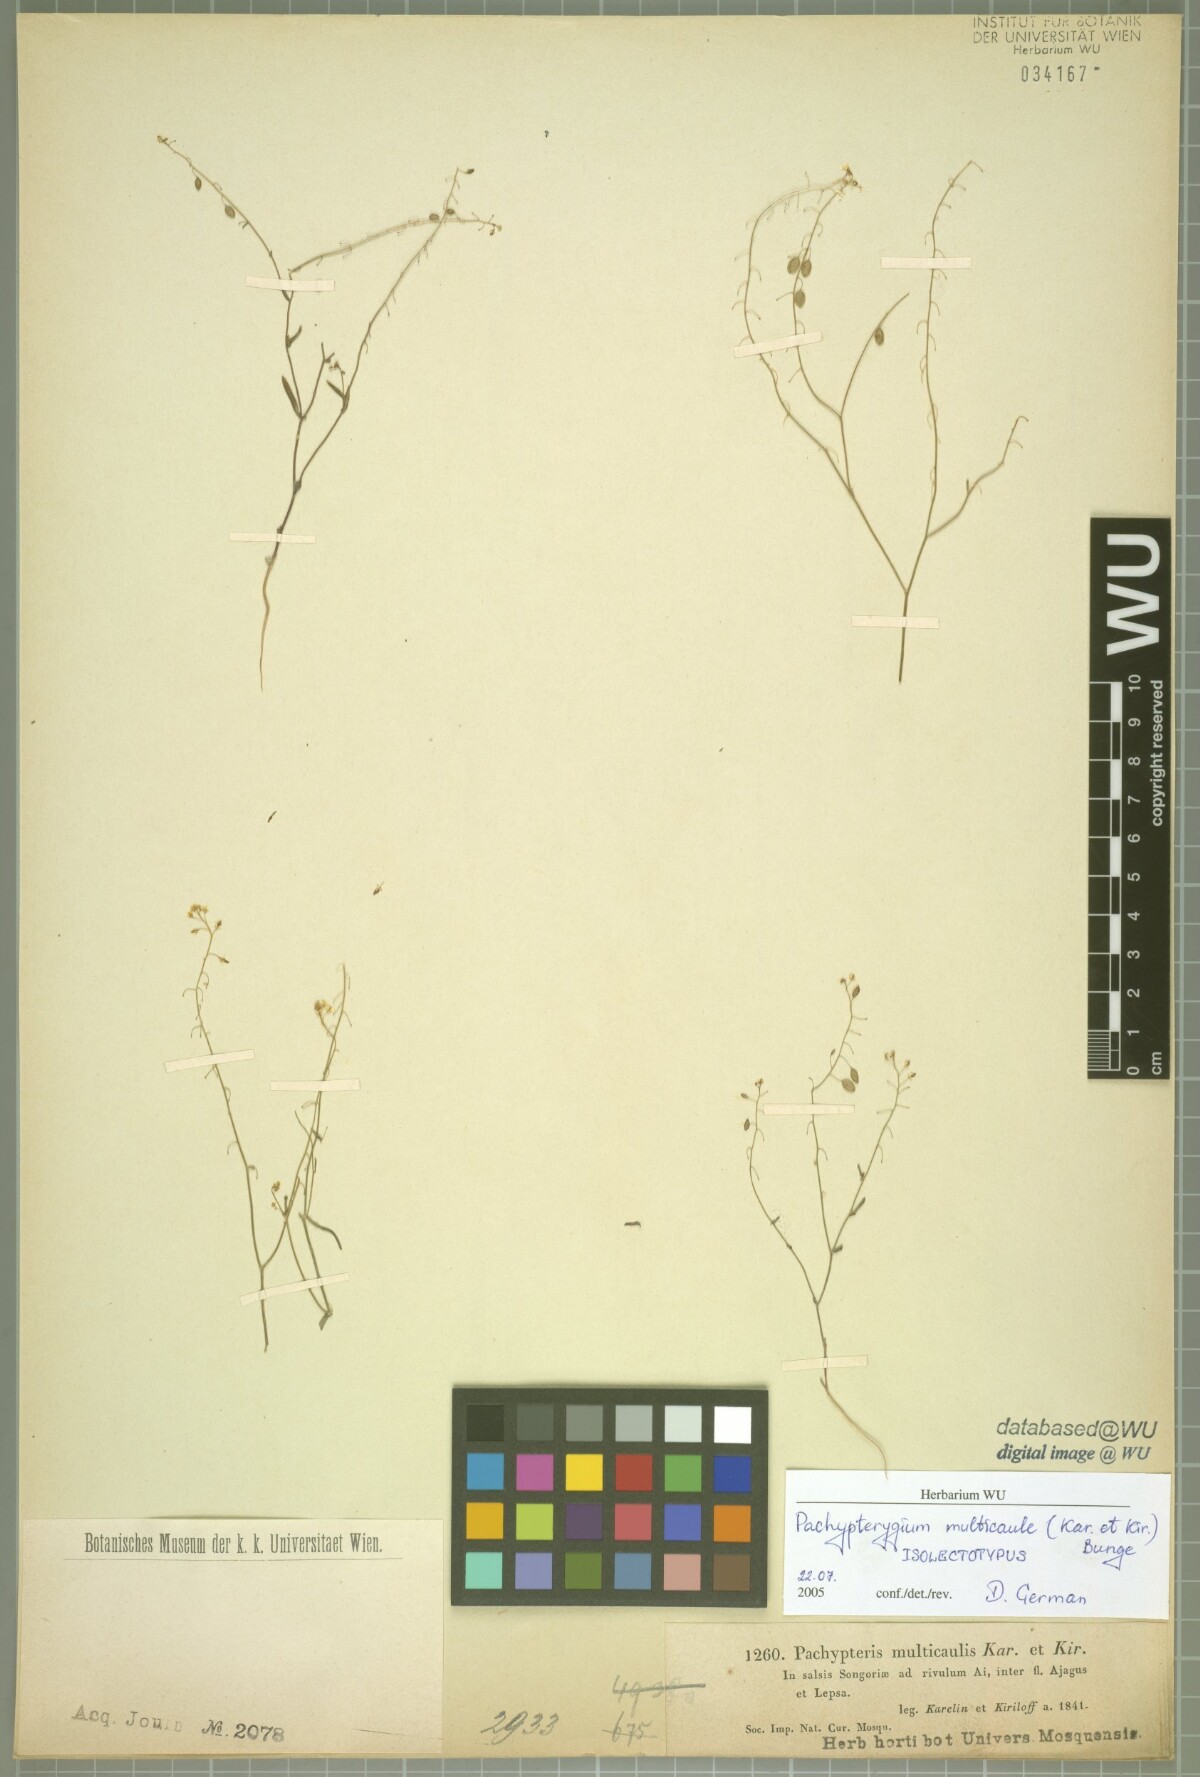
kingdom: Plantae
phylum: Tracheophyta
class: Magnoliopsida
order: Brassicales
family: Brassicaceae
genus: Isatis
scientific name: Isatis multicaulis
